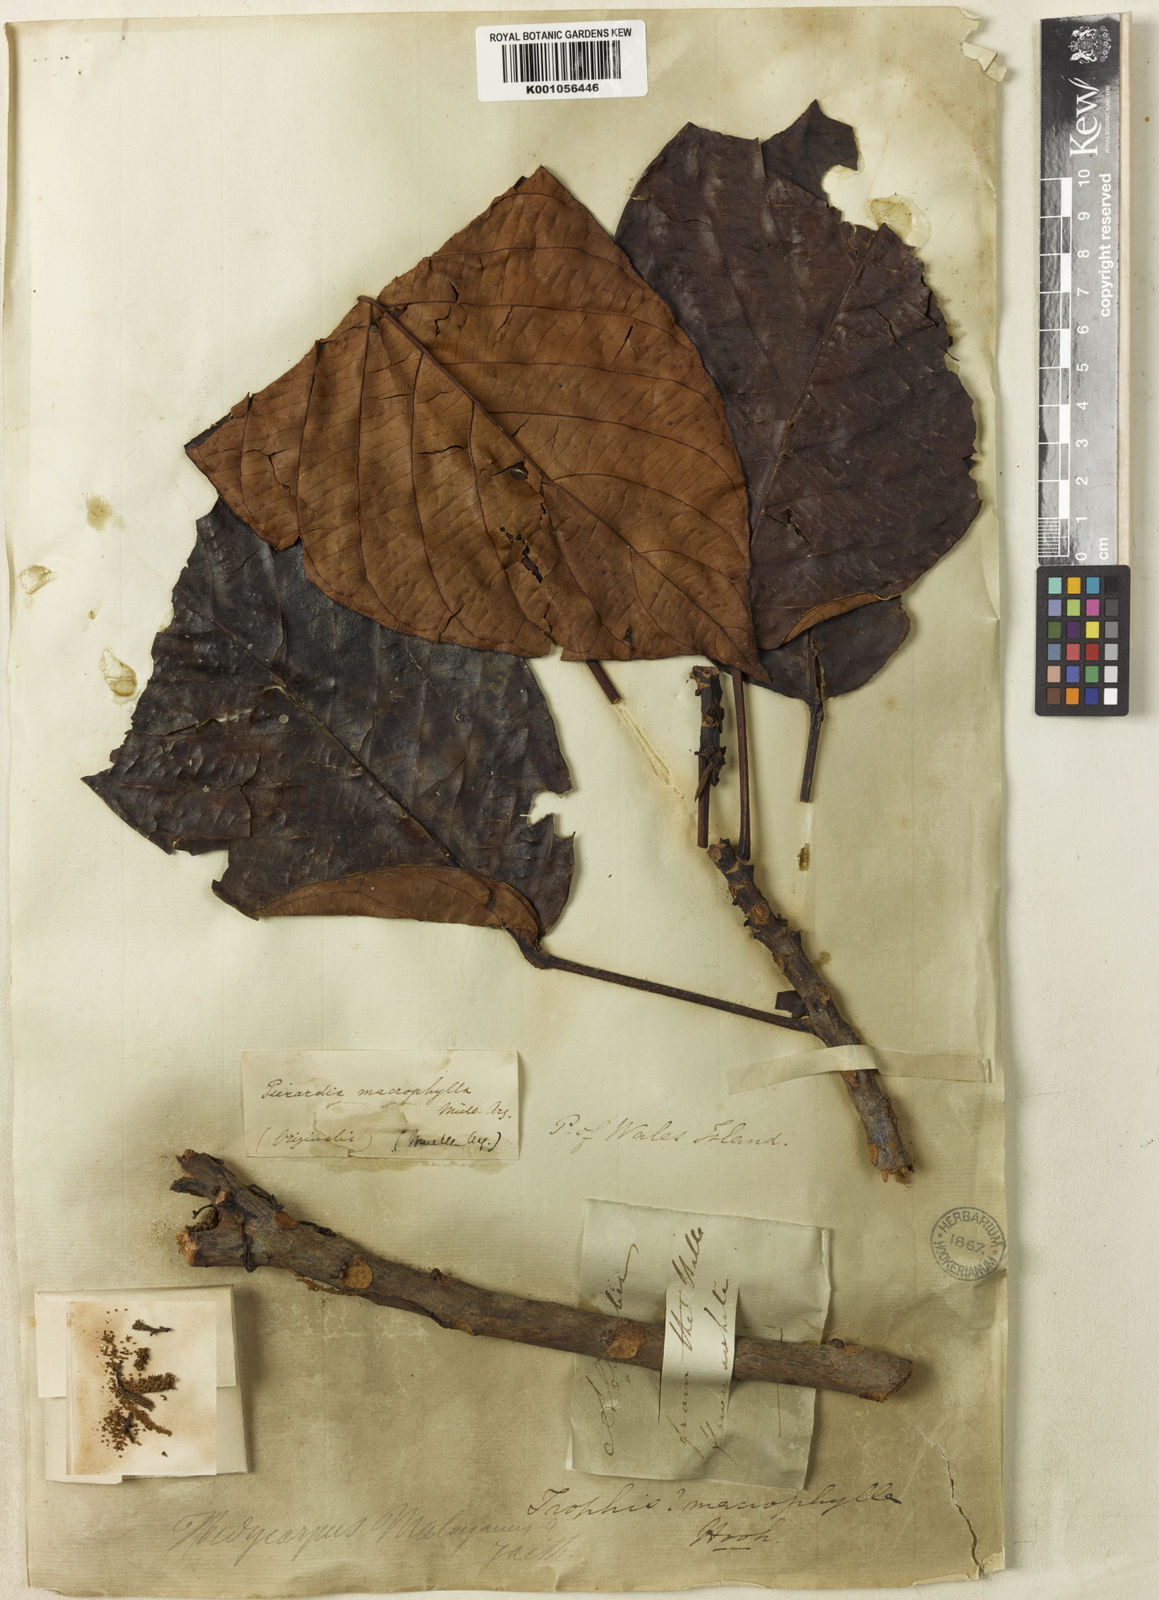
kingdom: Plantae
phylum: Tracheophyta
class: Magnoliopsida
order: Malpighiales
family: Phyllanthaceae
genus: Baccaurea
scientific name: Baccaurea
